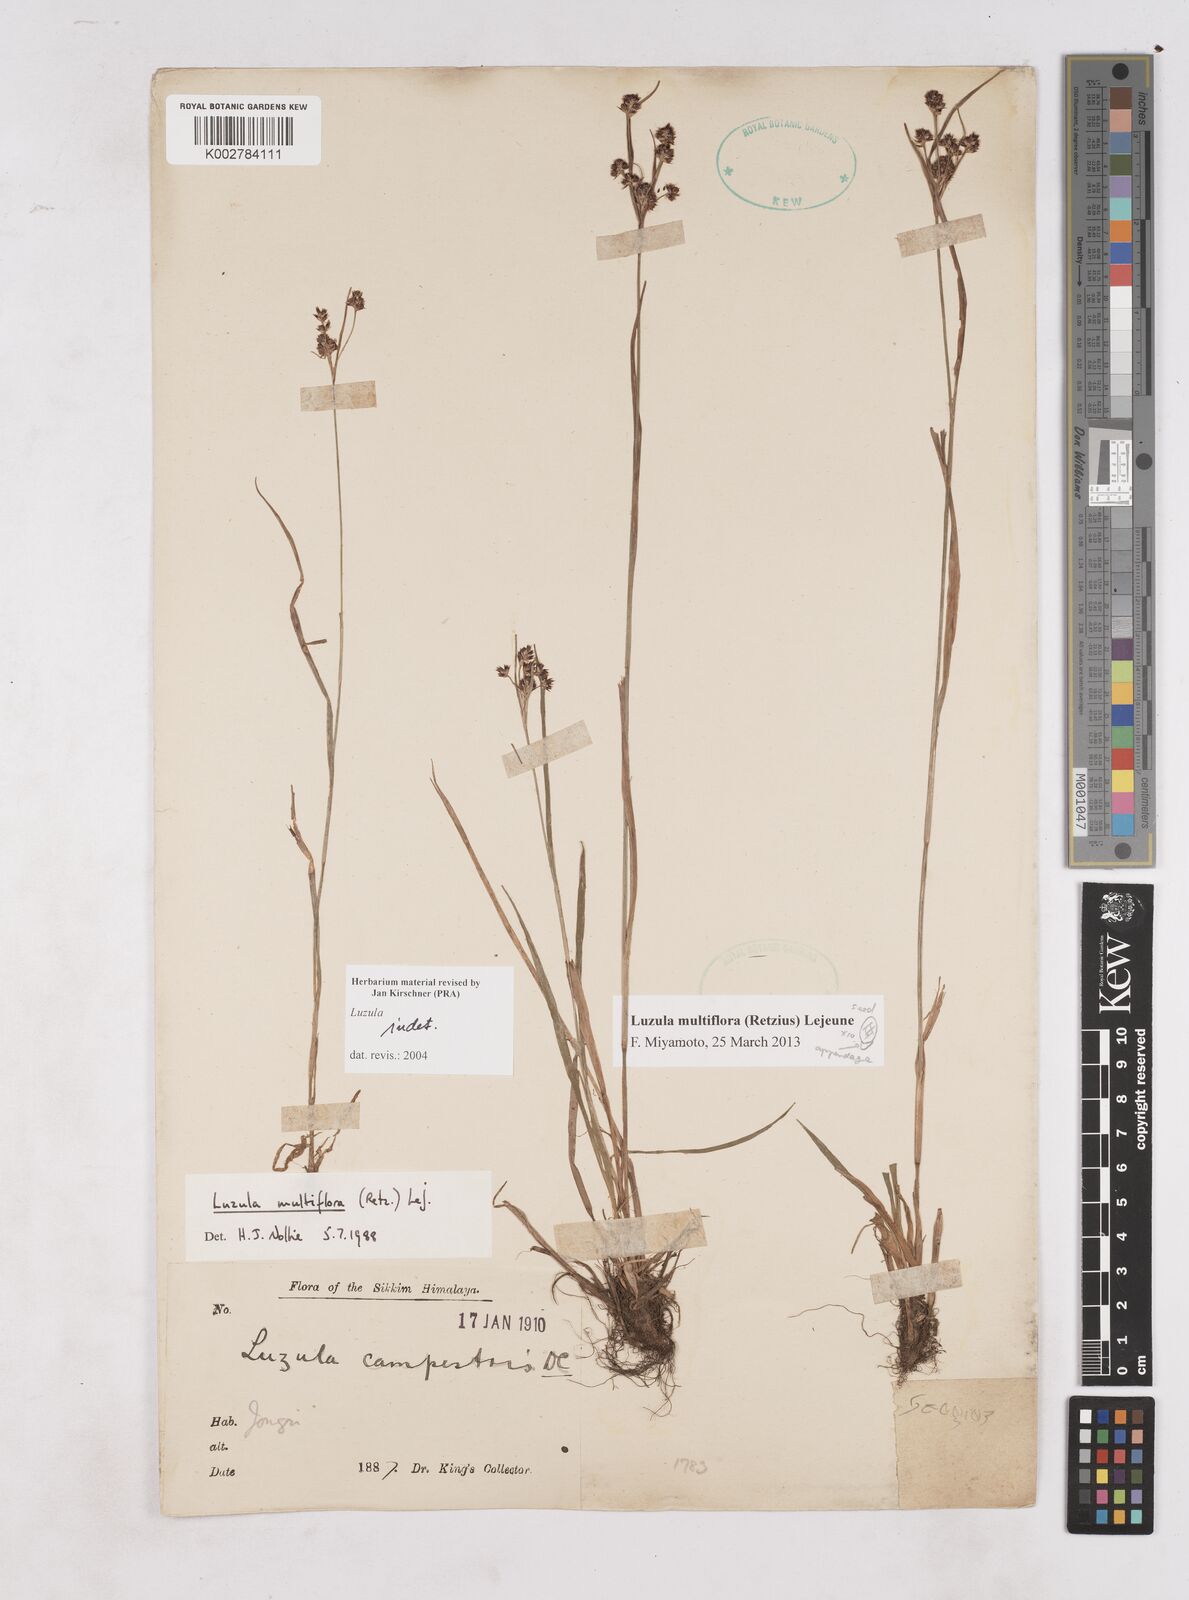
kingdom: Plantae
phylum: Tracheophyta
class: Liliopsida
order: Poales
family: Juncaceae
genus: Luzula
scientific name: Luzula
